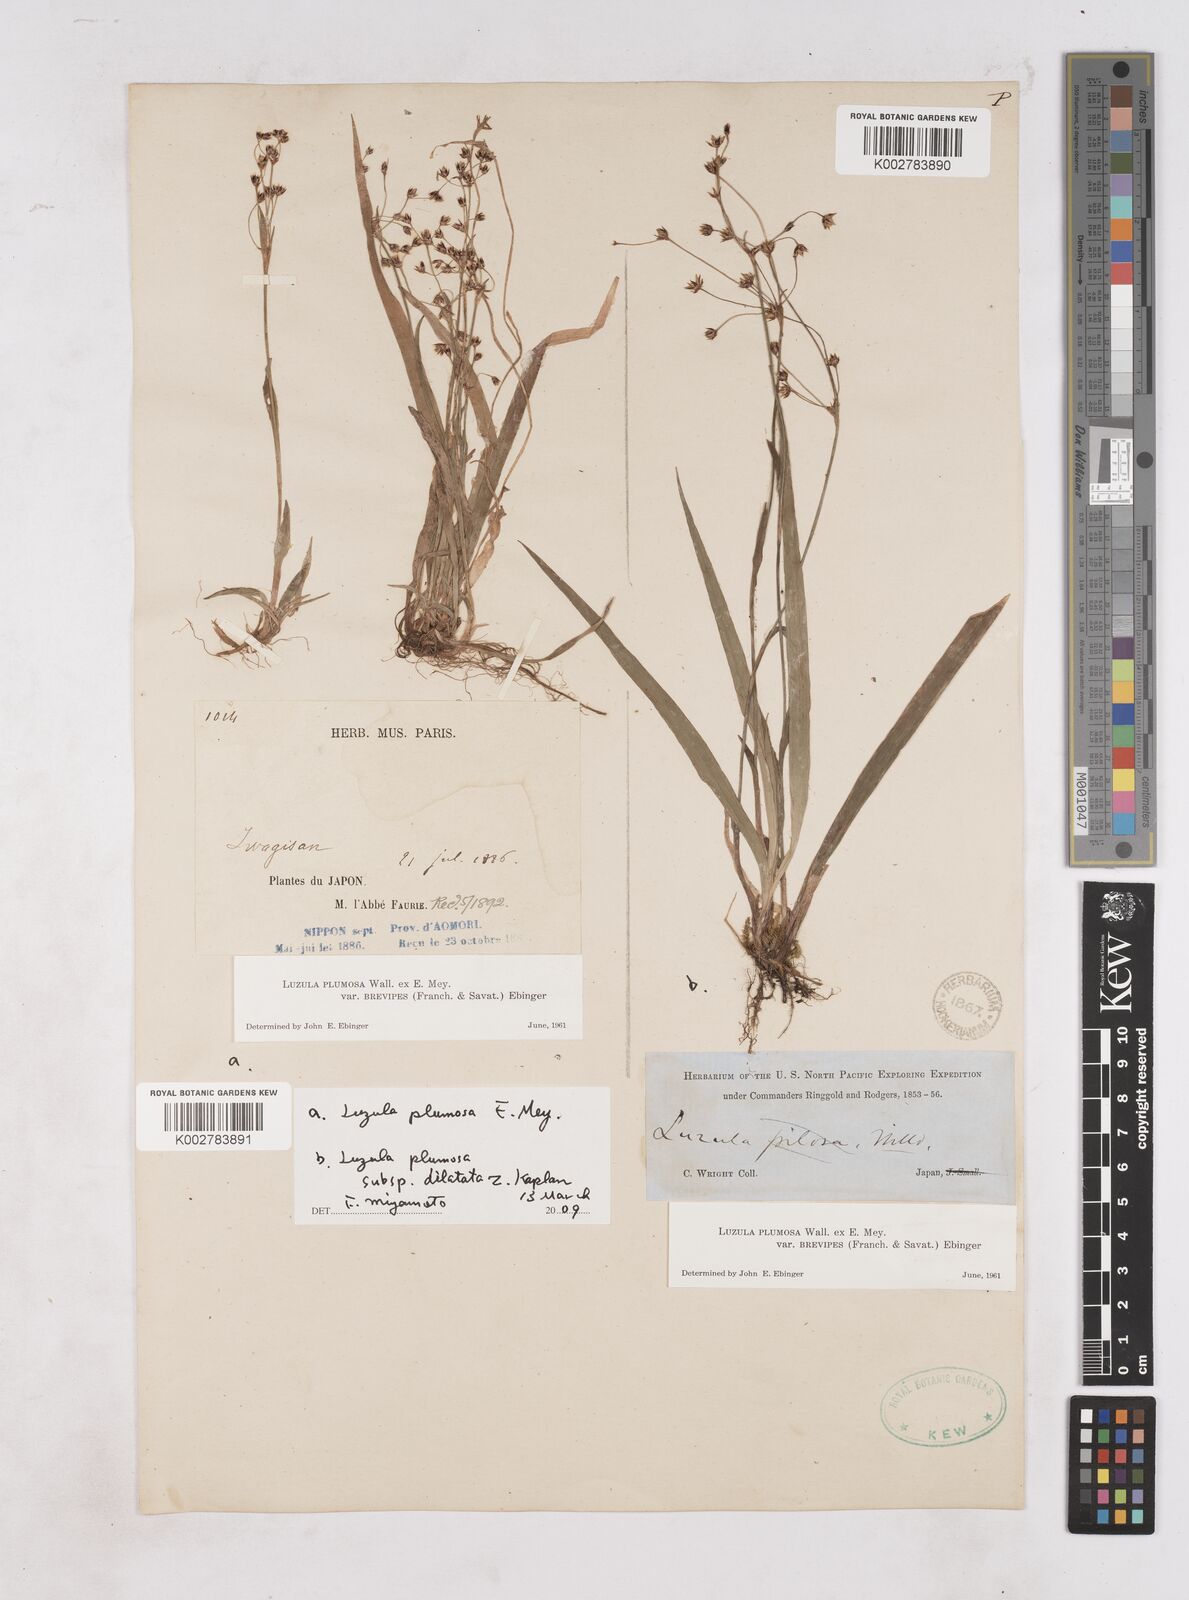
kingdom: Plantae
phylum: Tracheophyta
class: Liliopsida
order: Poales
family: Juncaceae
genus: Luzula
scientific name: Luzula plumosa
